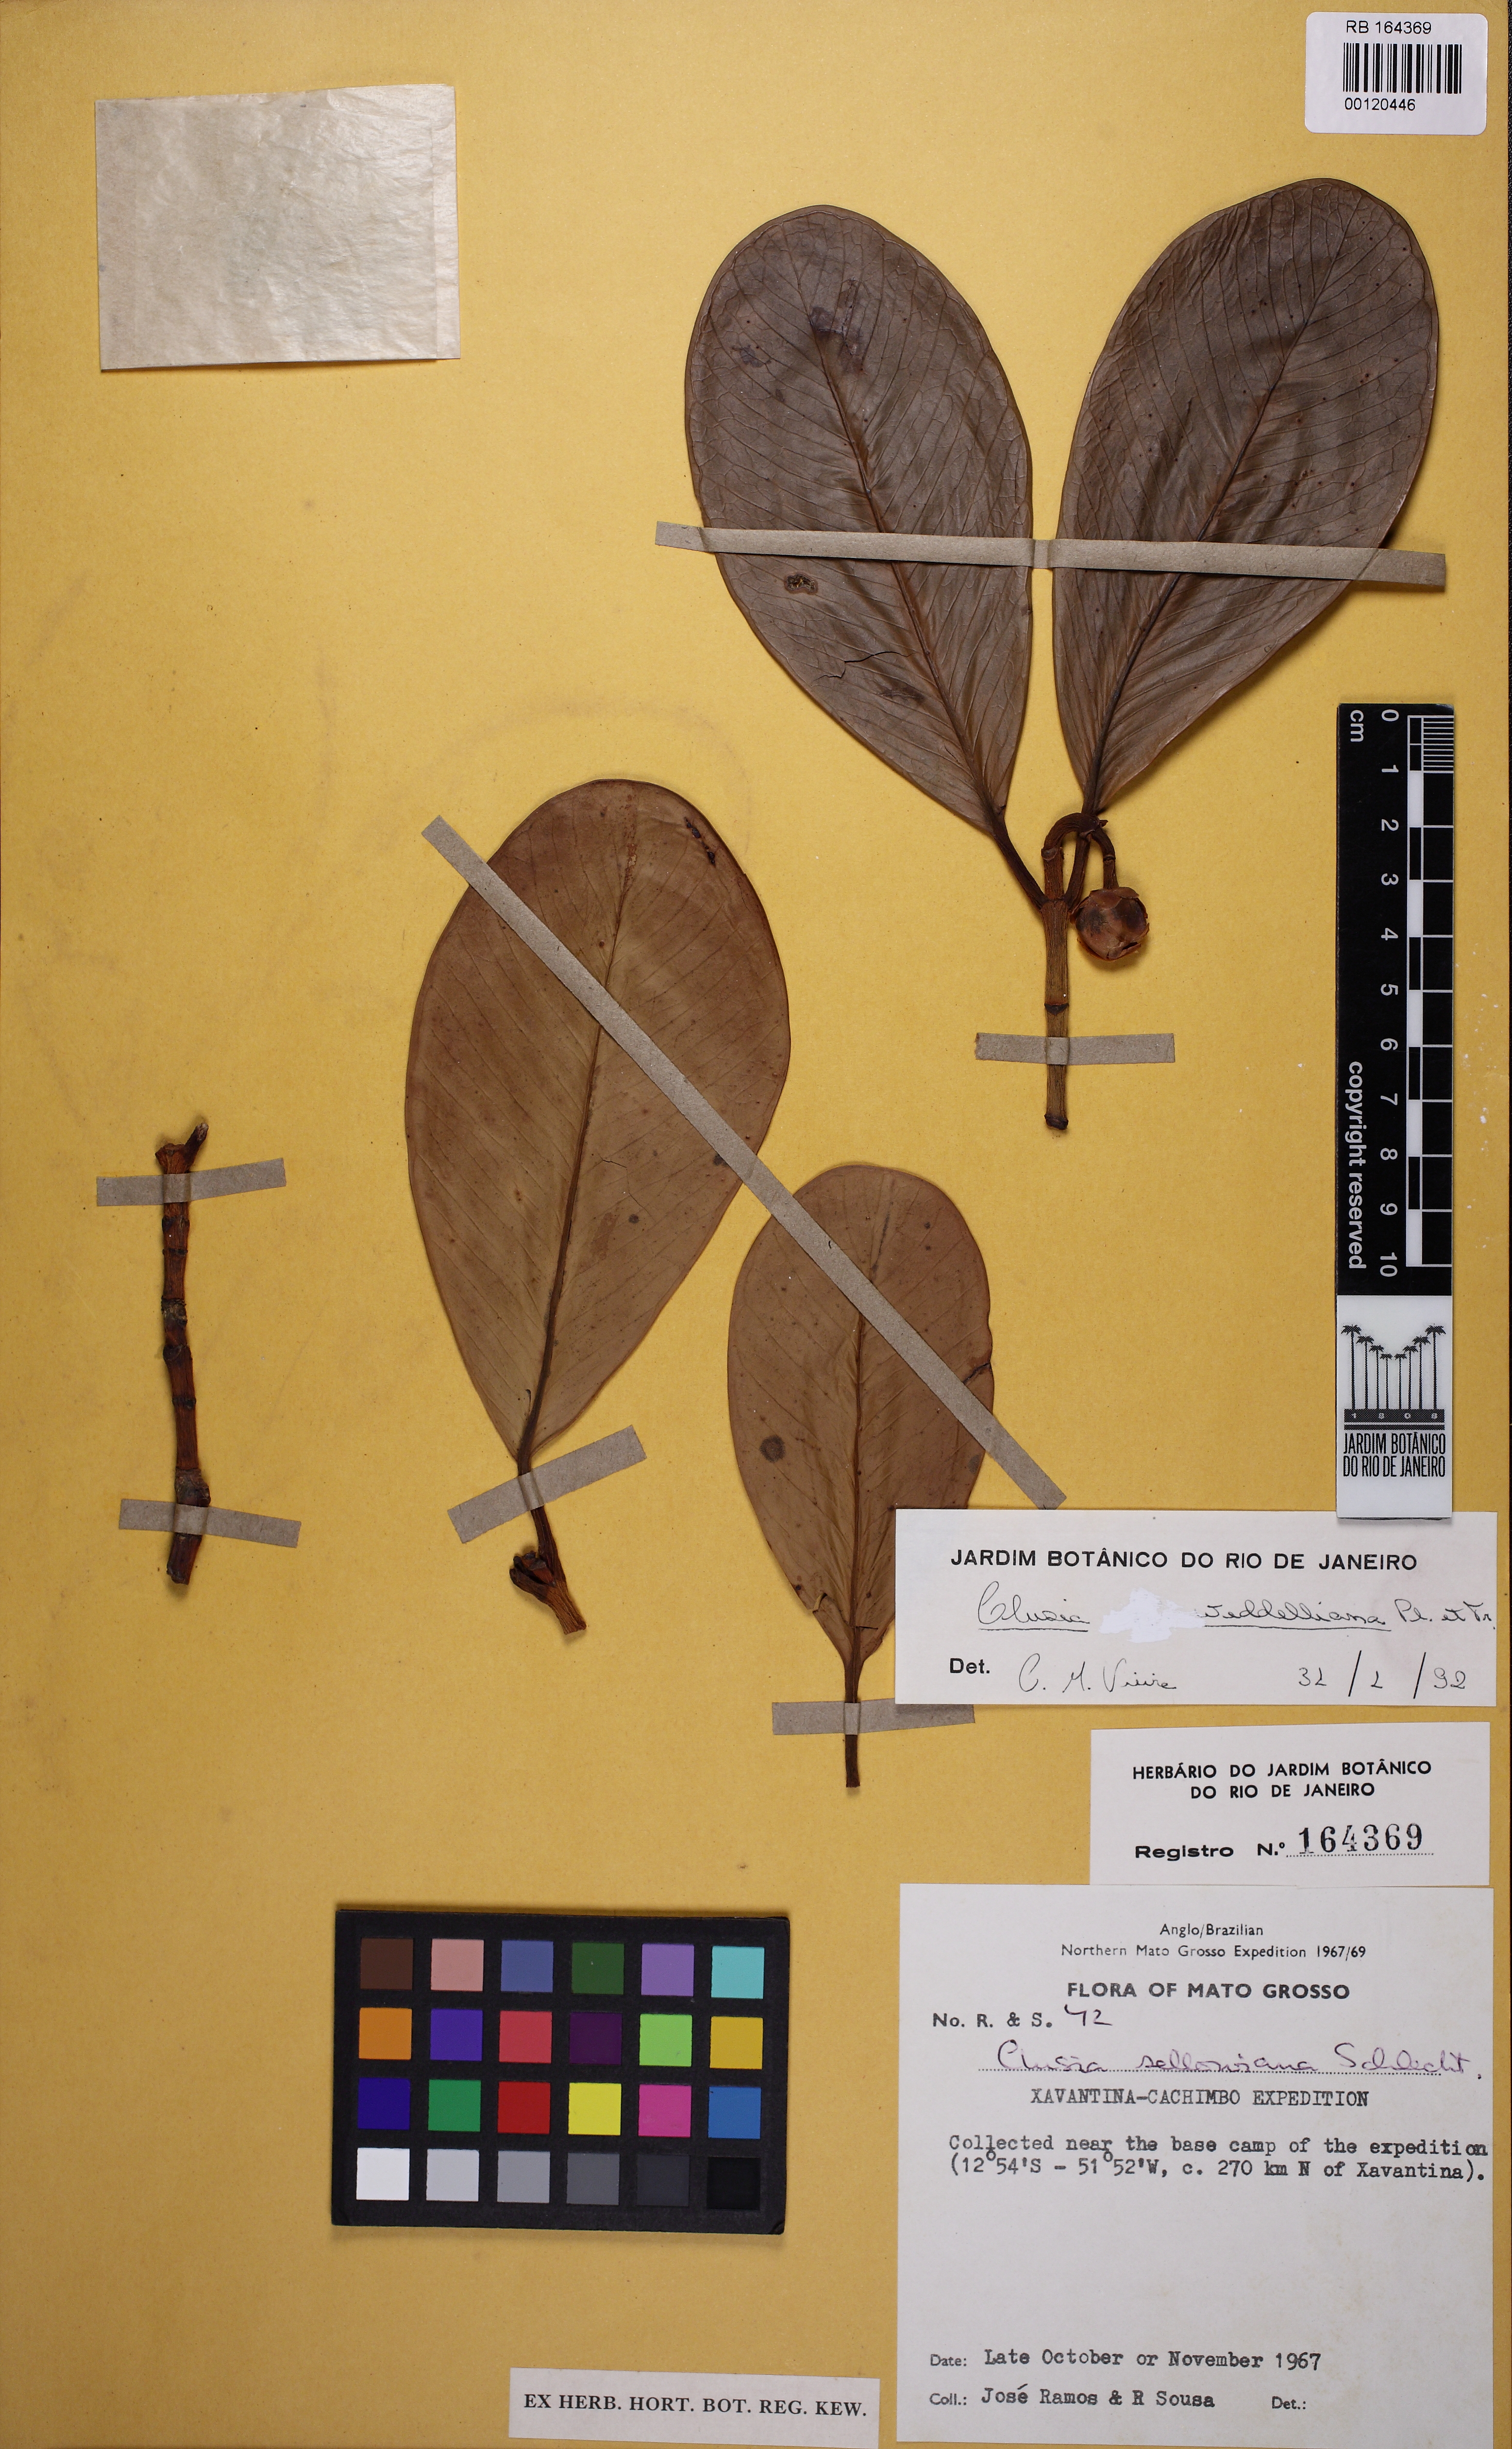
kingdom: Plantae
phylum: Tracheophyta
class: Magnoliopsida
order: Malpighiales
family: Clusiaceae
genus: Clusia
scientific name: Clusia weddelliana
